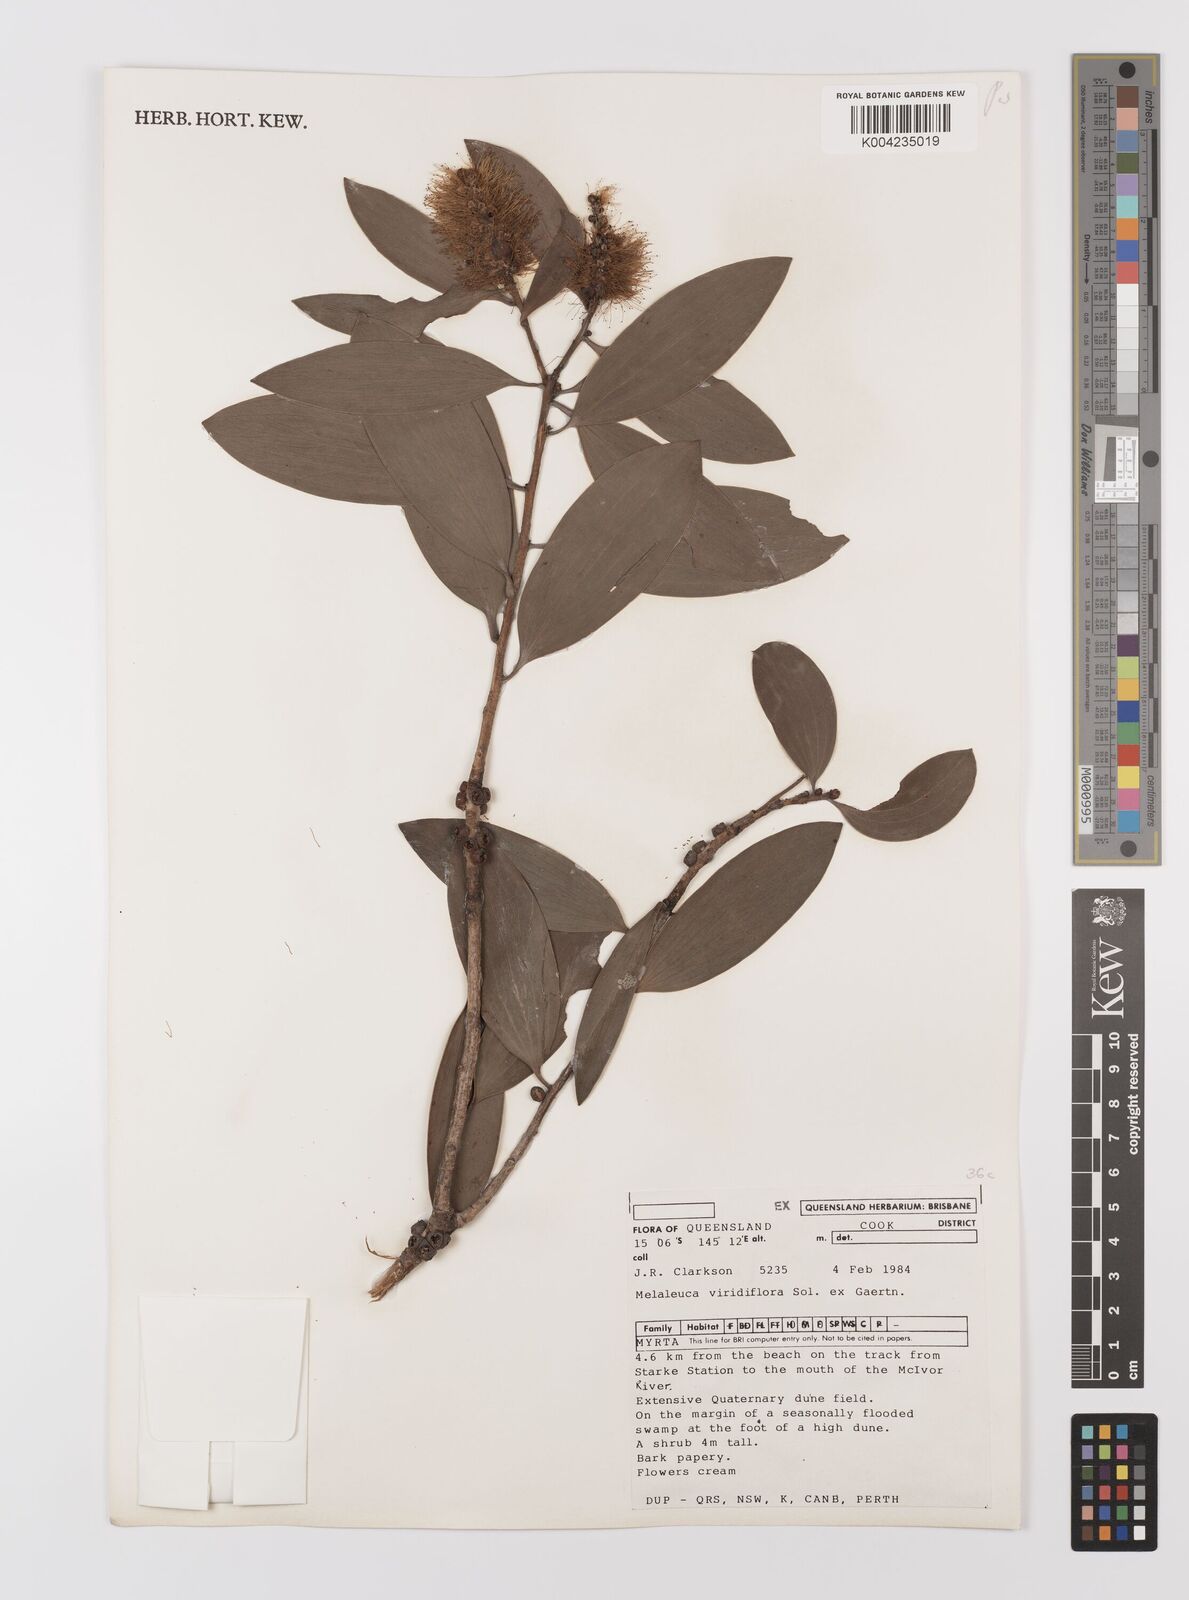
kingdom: Plantae
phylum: Tracheophyta
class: Magnoliopsida
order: Myrtales
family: Myrtaceae
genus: Melaleuca
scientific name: Melaleuca viridiflora
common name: Brown-leaved paperbark
